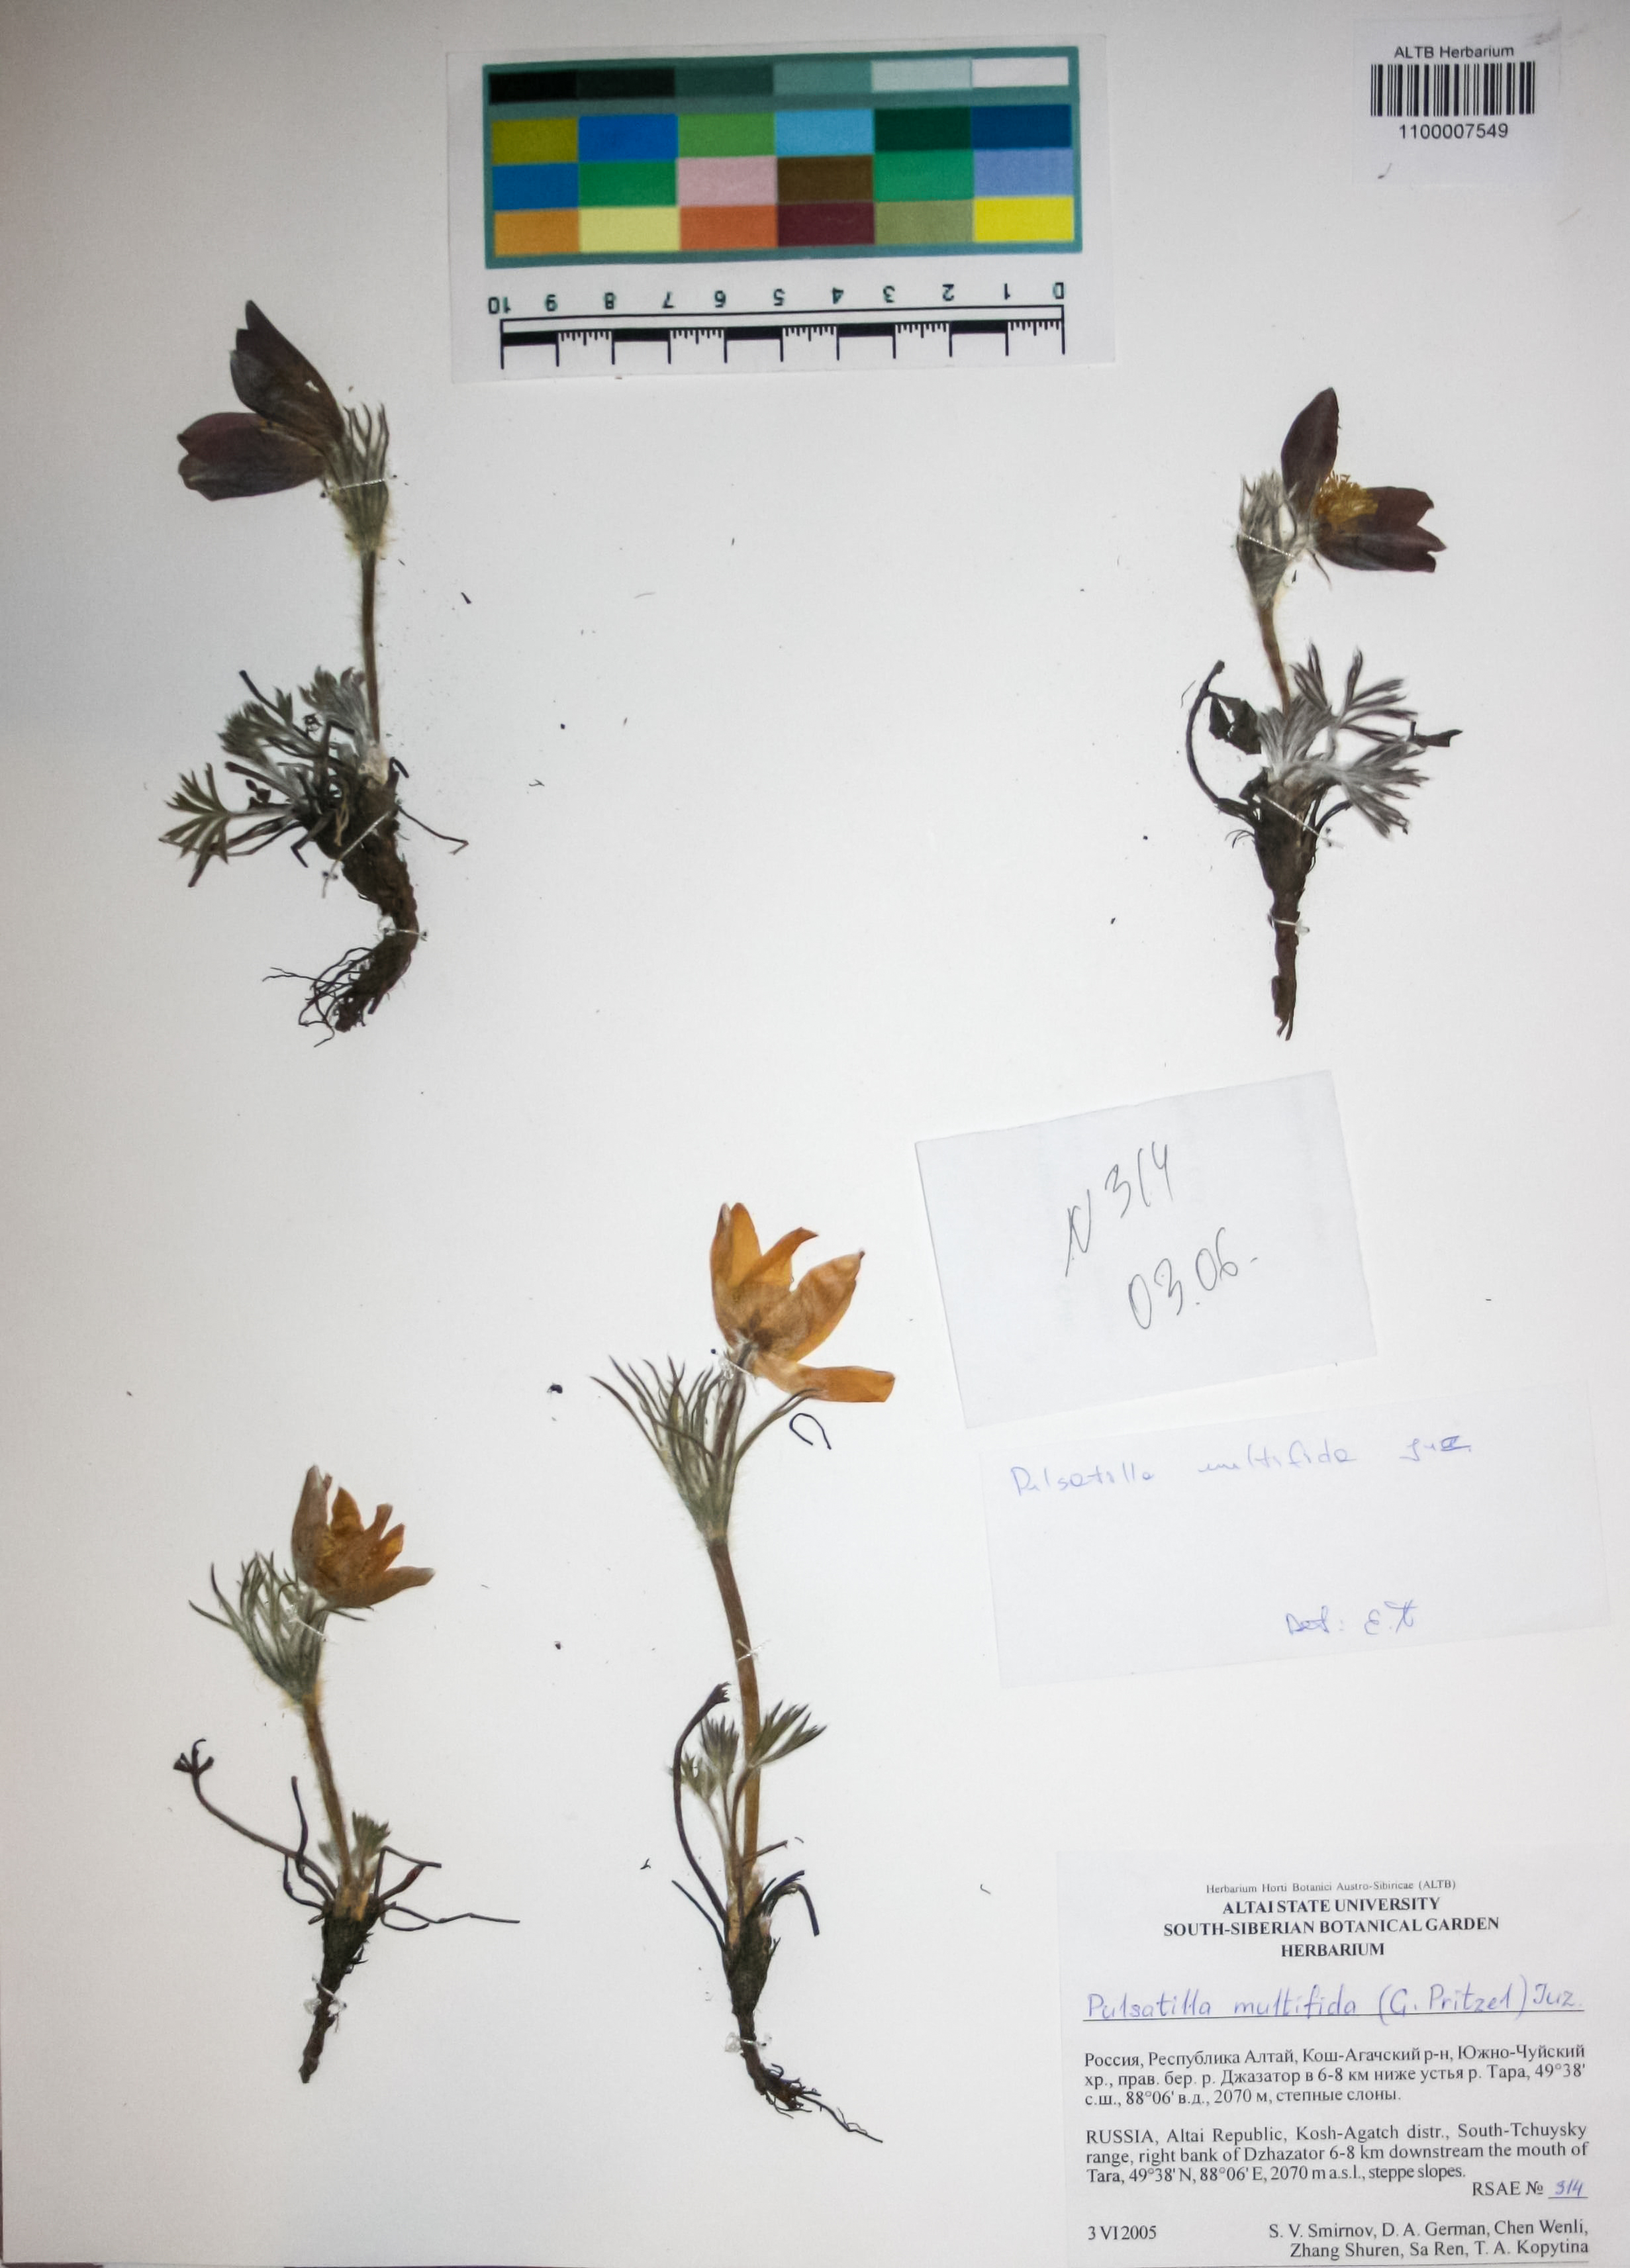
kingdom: Plantae
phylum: Tracheophyta
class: Magnoliopsida
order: Ranunculales
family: Ranunculaceae
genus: Pulsatilla
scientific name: Pulsatilla patens
